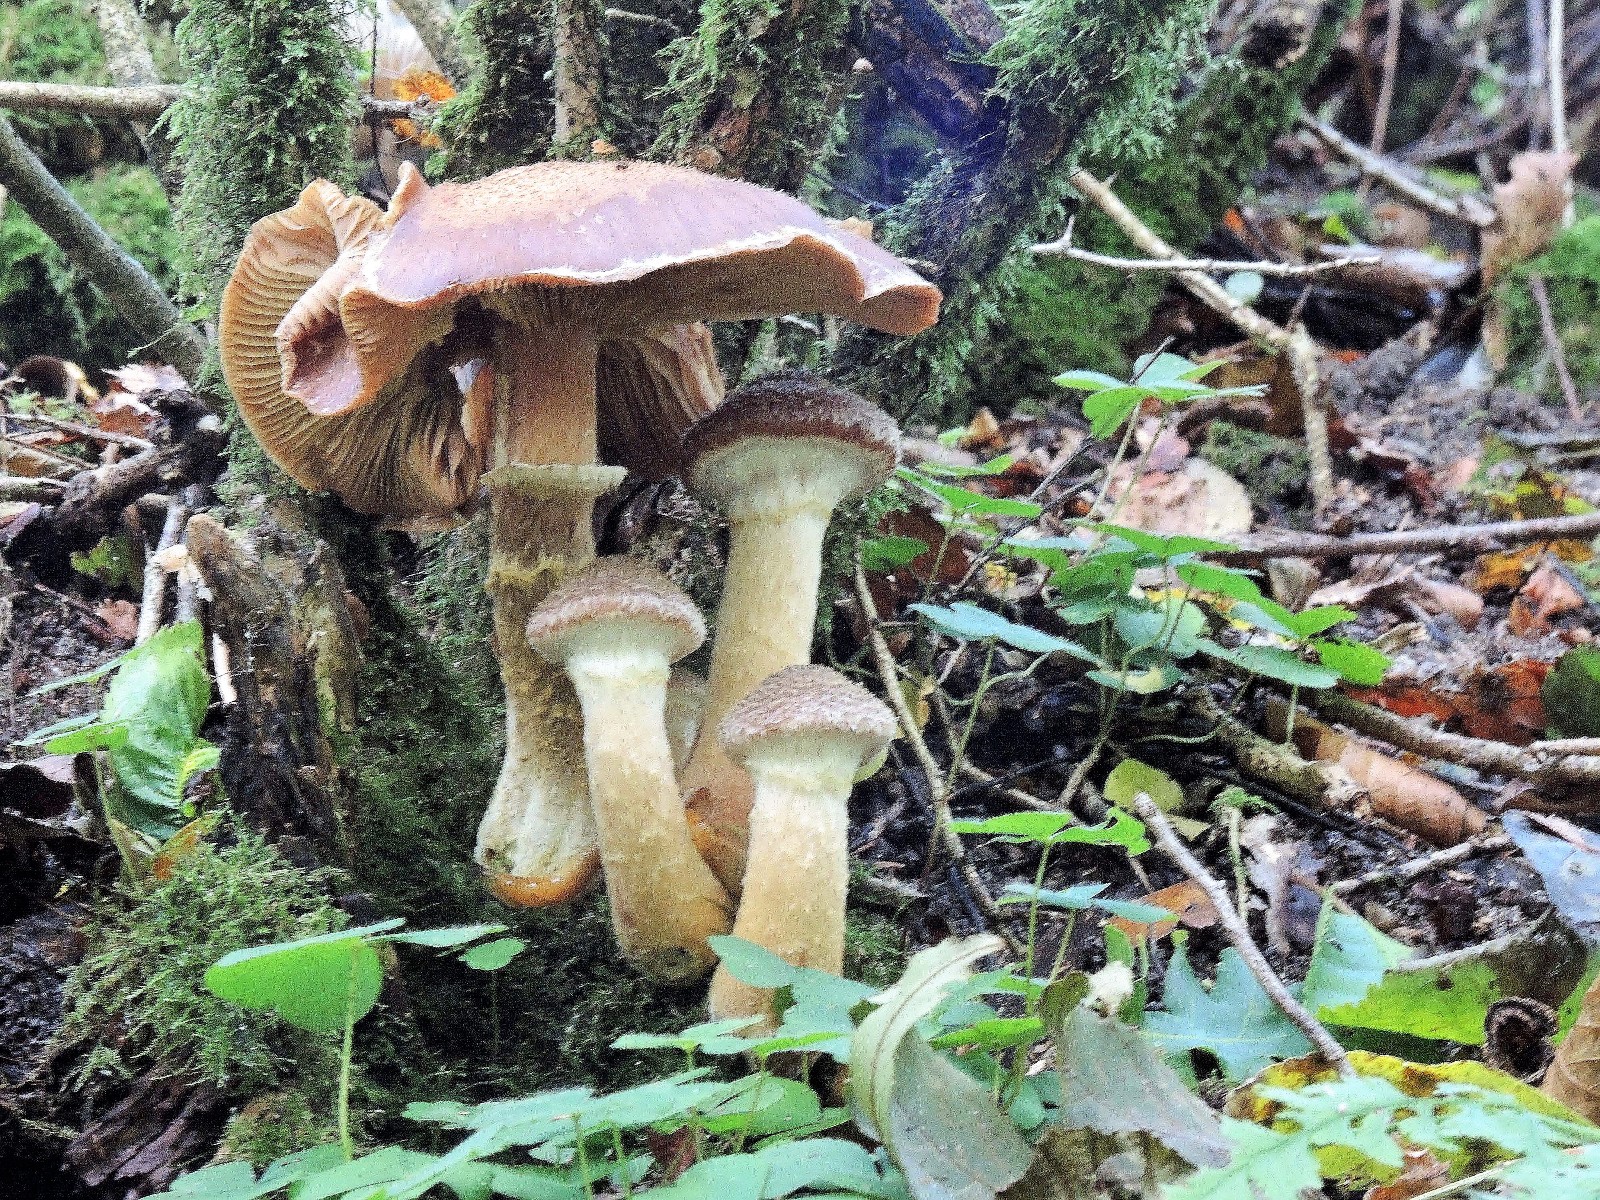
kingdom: Fungi
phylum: Basidiomycota
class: Agaricomycetes
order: Agaricales
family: Physalacriaceae
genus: Armillaria
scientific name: Armillaria lutea
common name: køllestokket honningsvamp
